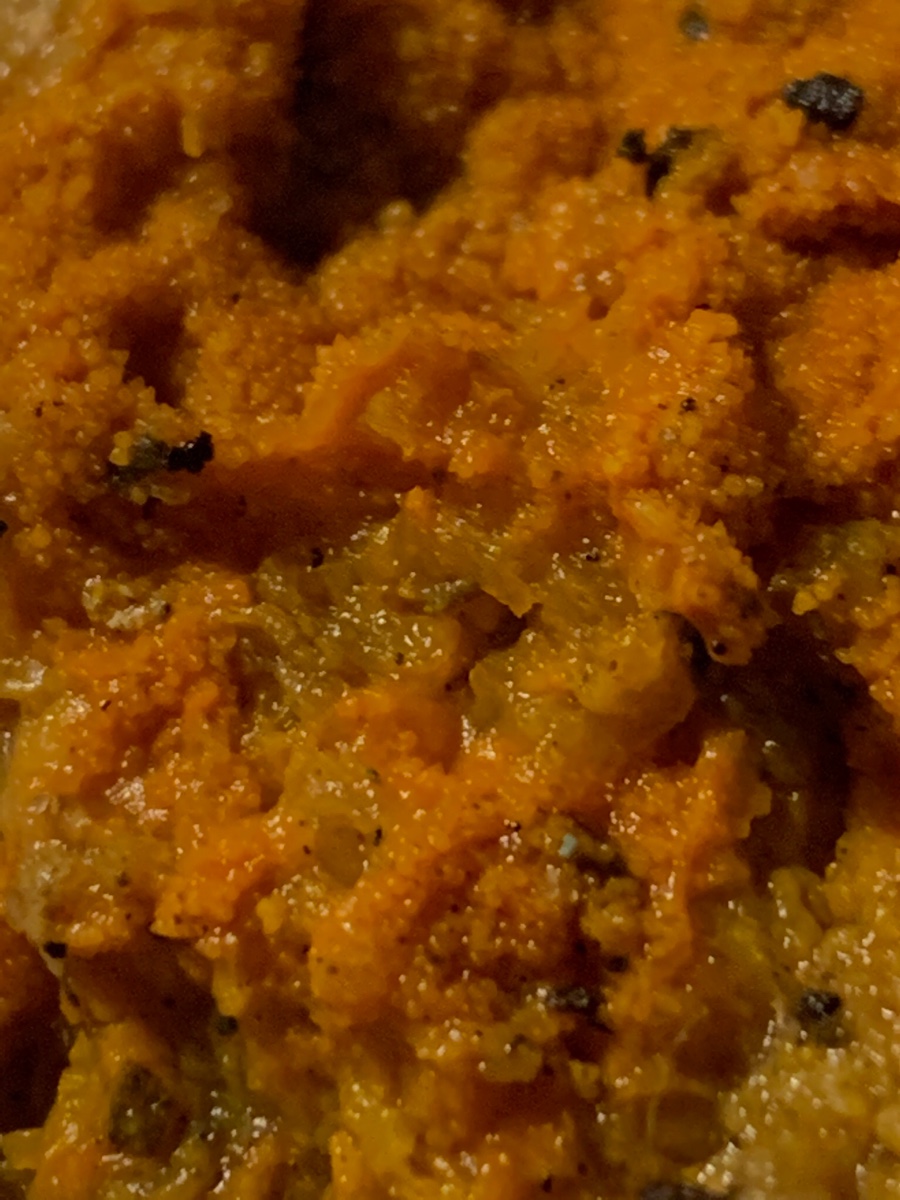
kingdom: Fungi
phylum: Ascomycota
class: Sordariomycetes
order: Hypocreales
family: Hypocreaceae
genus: Hypomyces
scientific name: Hypomyces aurantius
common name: almindelig snylteskorpe
